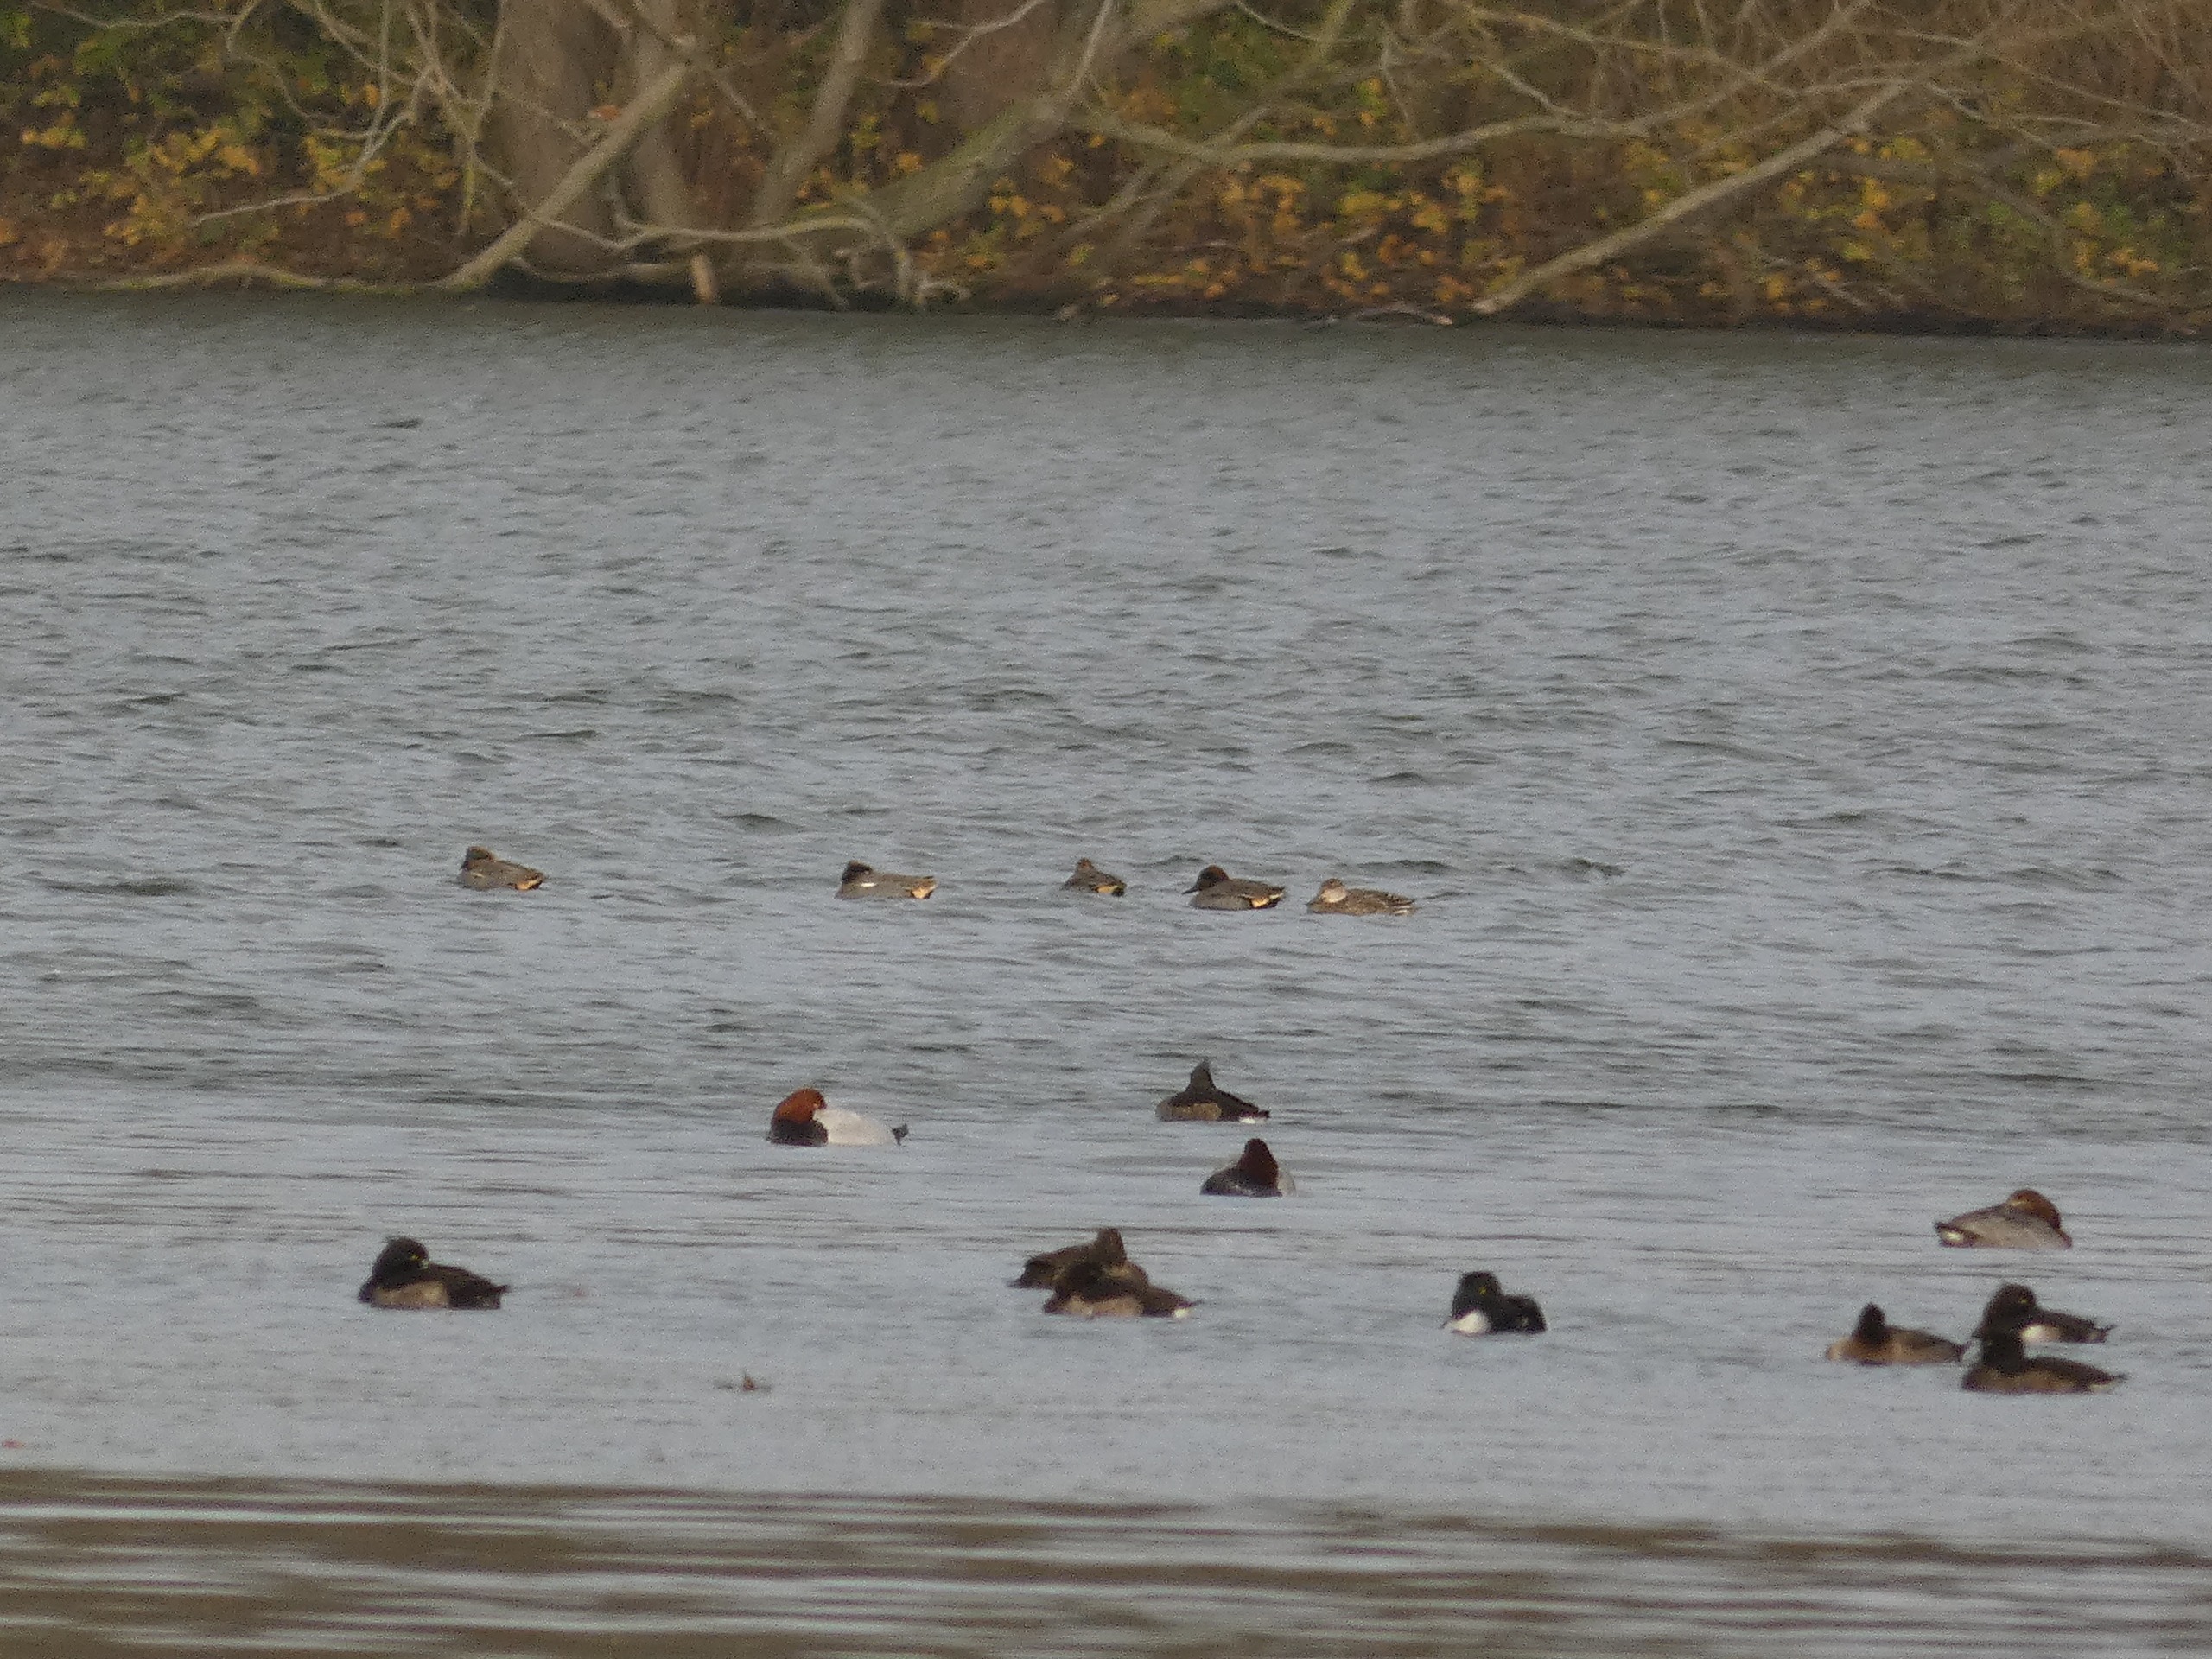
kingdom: Animalia
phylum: Chordata
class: Aves
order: Anseriformes
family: Anatidae
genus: Anas
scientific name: Anas crecca
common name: Krikand
